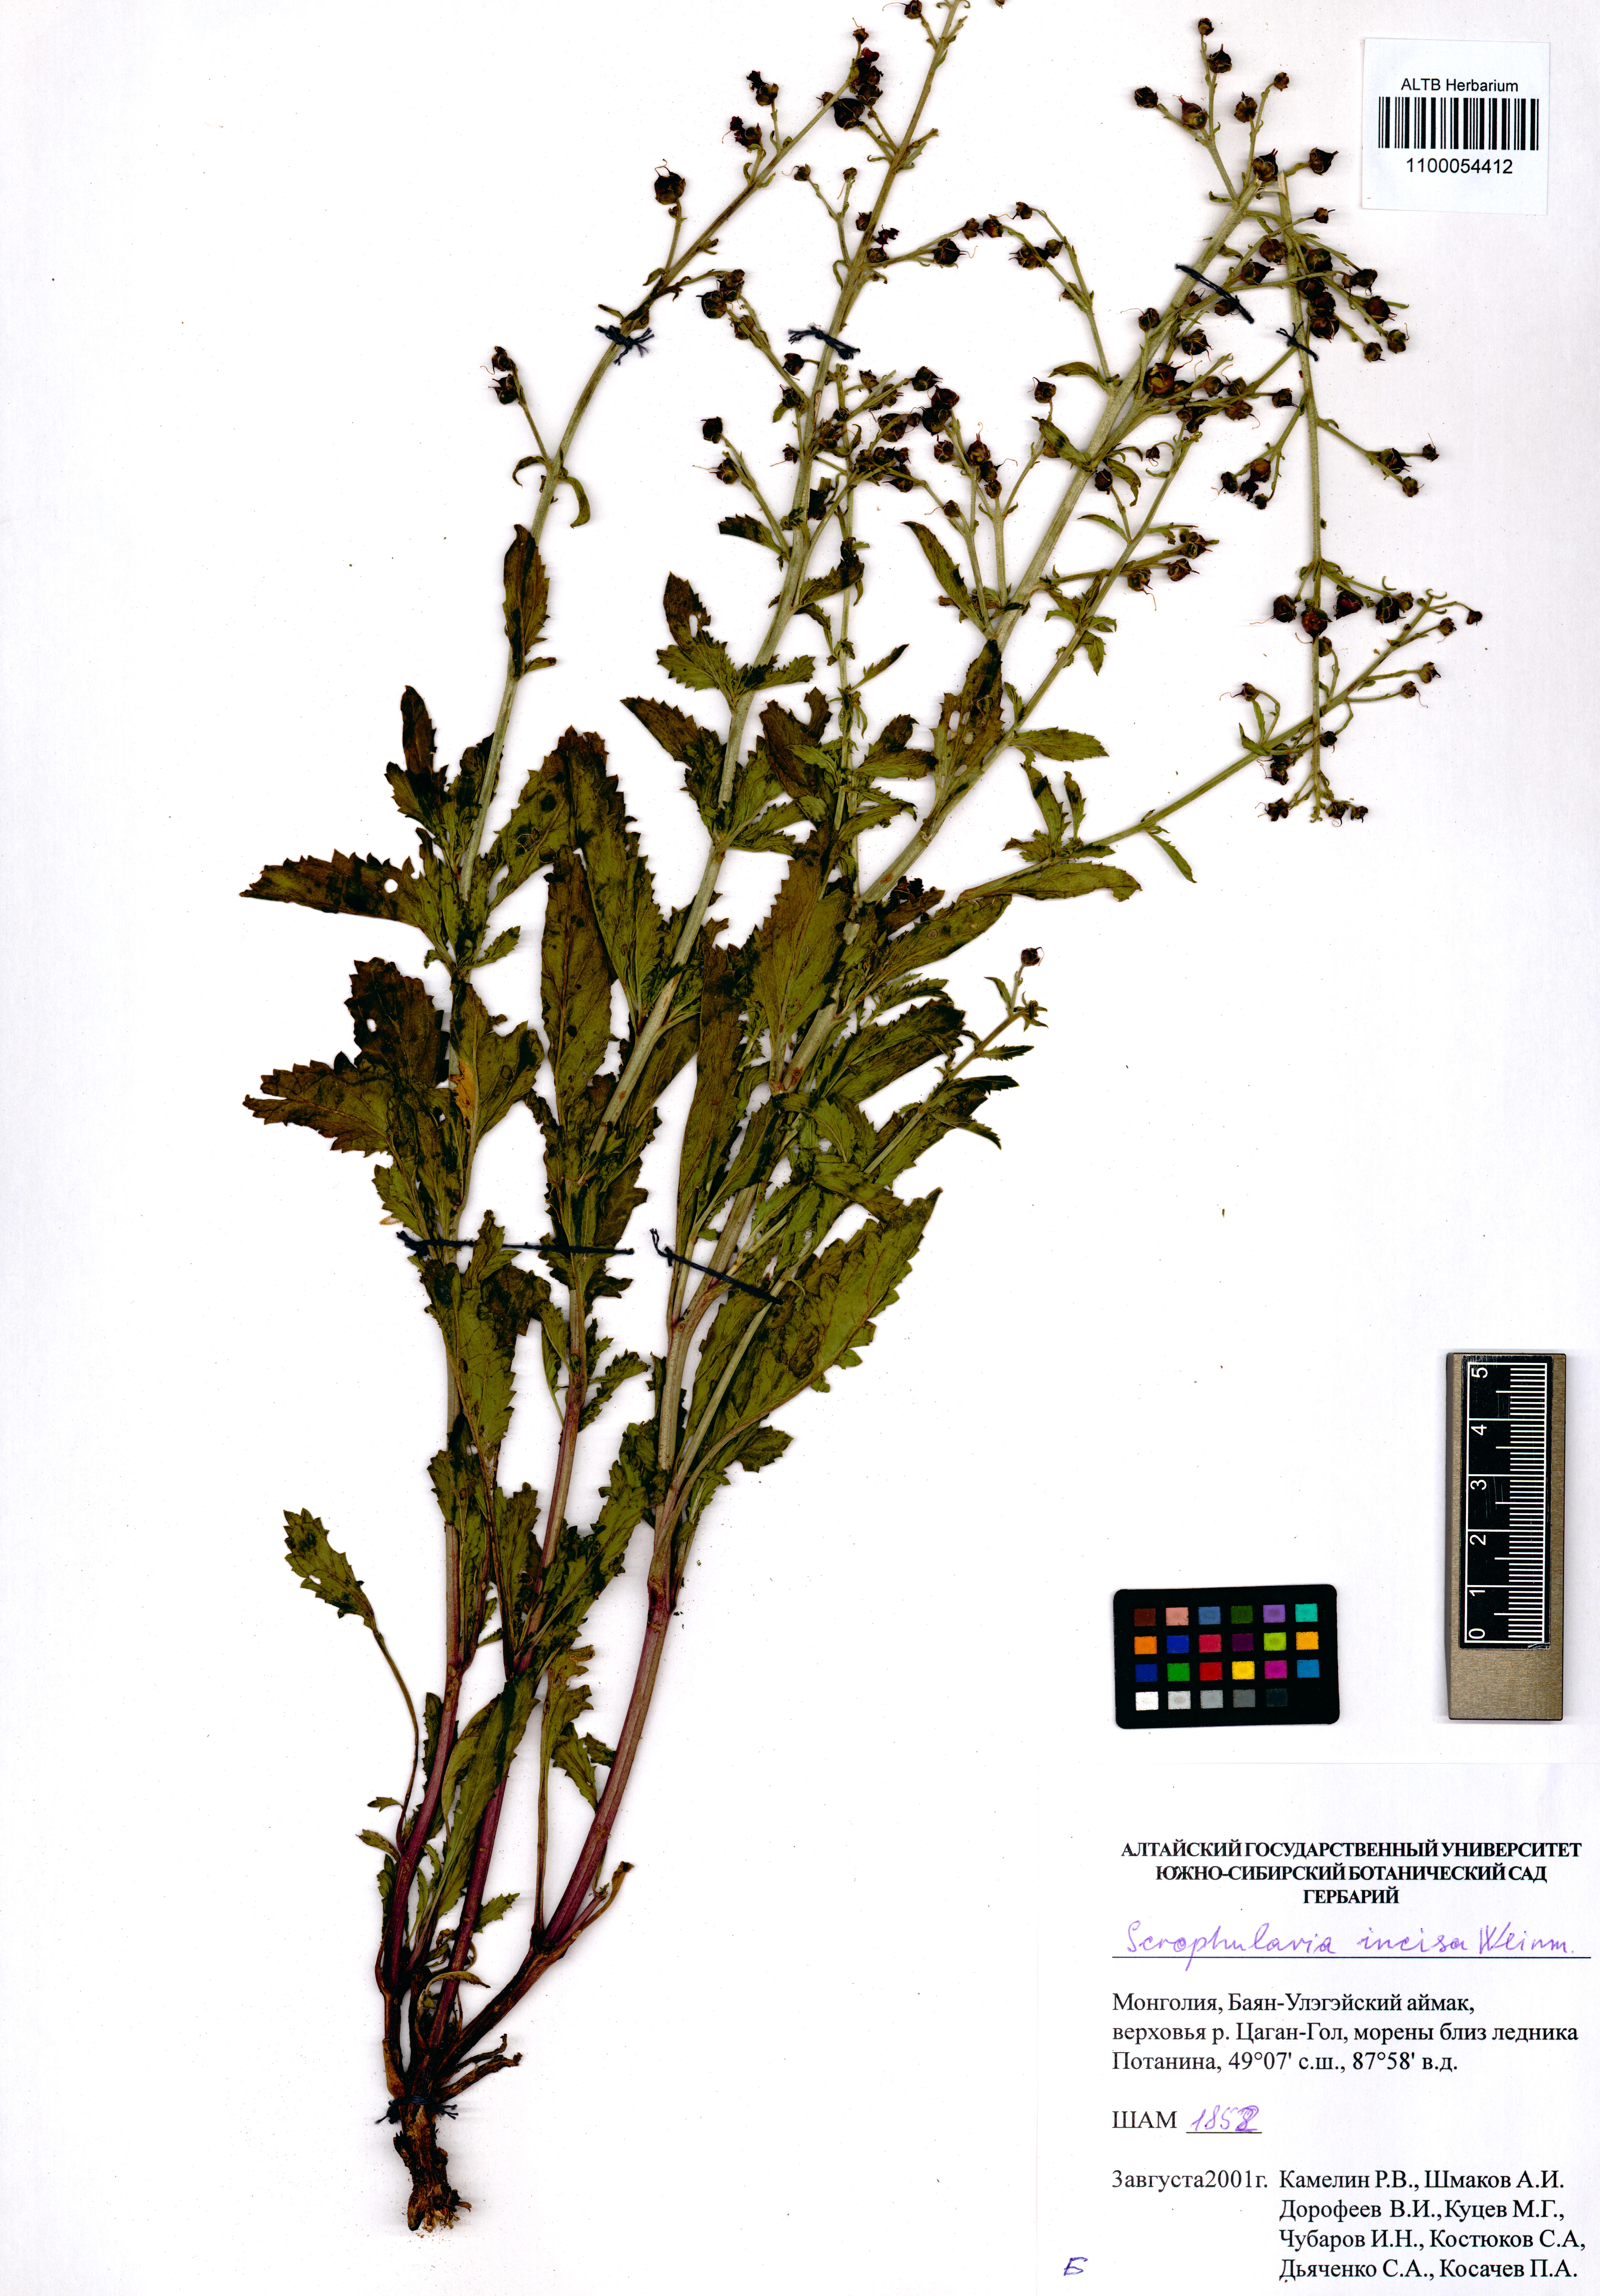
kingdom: Plantae
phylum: Tracheophyta
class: Magnoliopsida
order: Lamiales
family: Scrophulariaceae
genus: Scrophularia
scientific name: Scrophularia incisa
